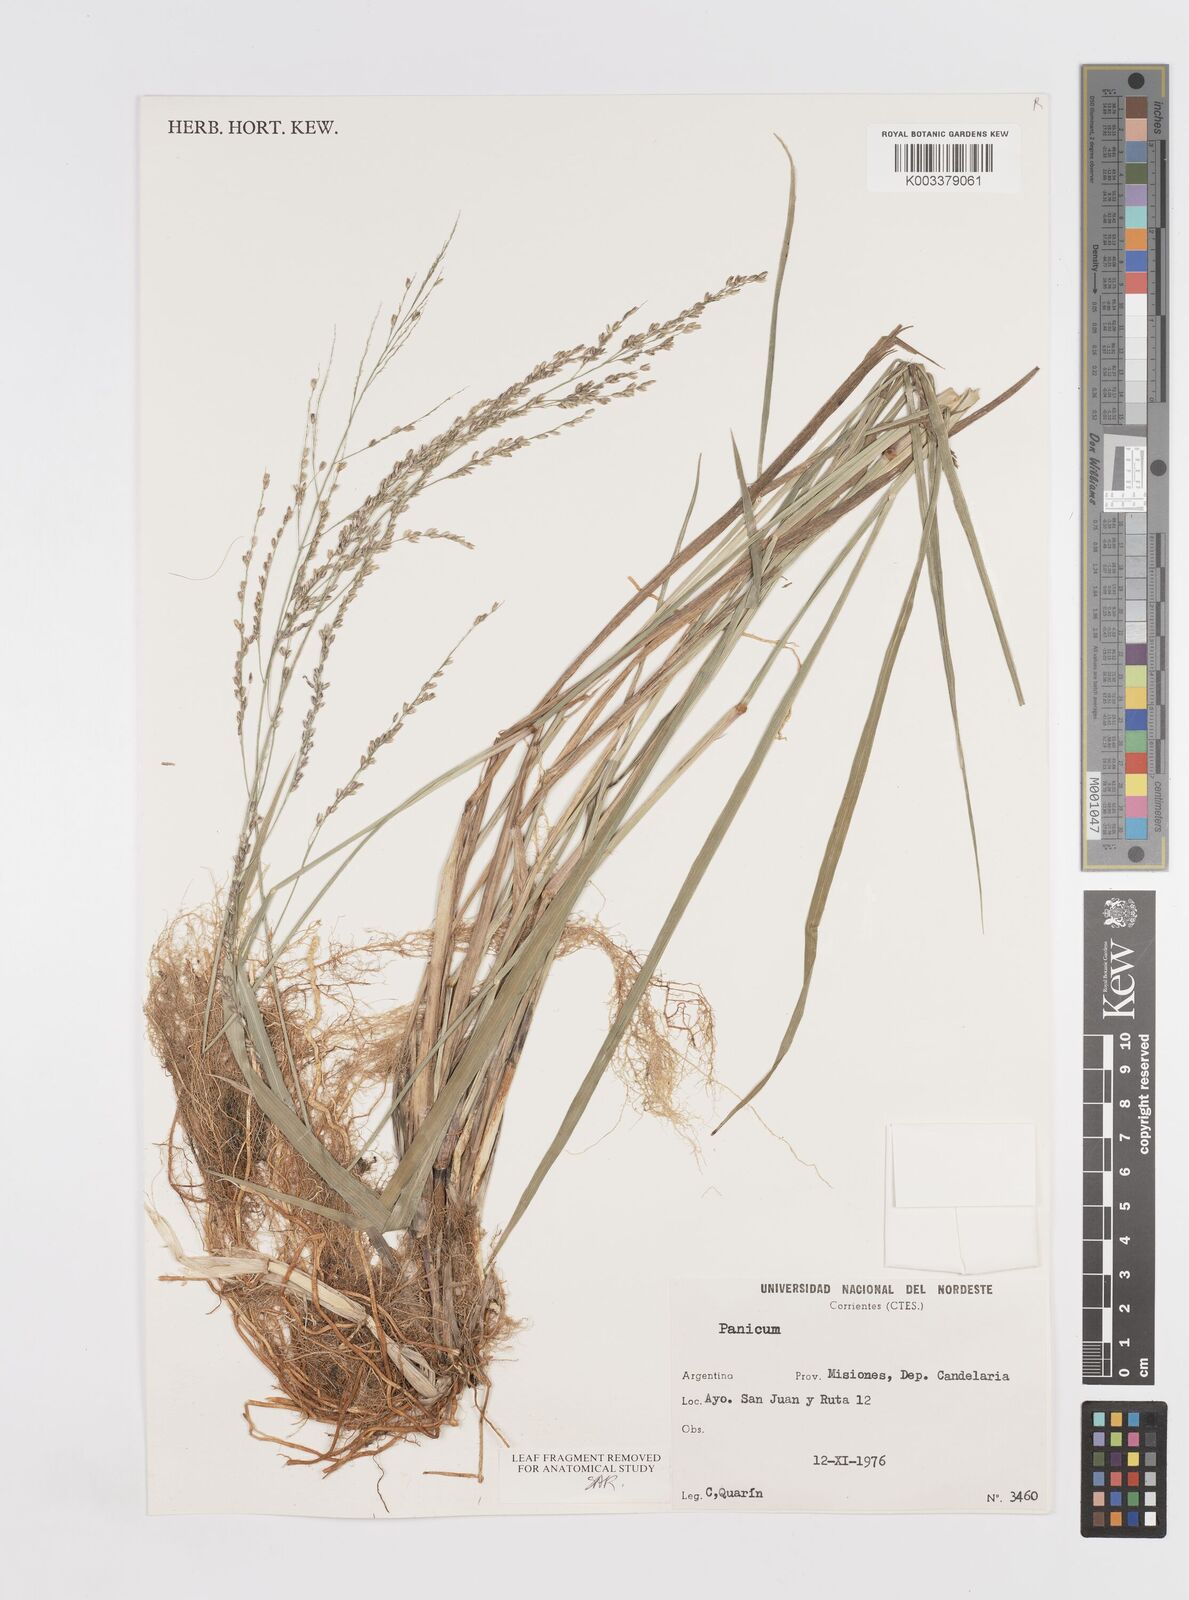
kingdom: Plantae
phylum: Tracheophyta
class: Liliopsida
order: Poales
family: Poaceae
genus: Steinchisma
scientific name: Steinchisma spathellosum
